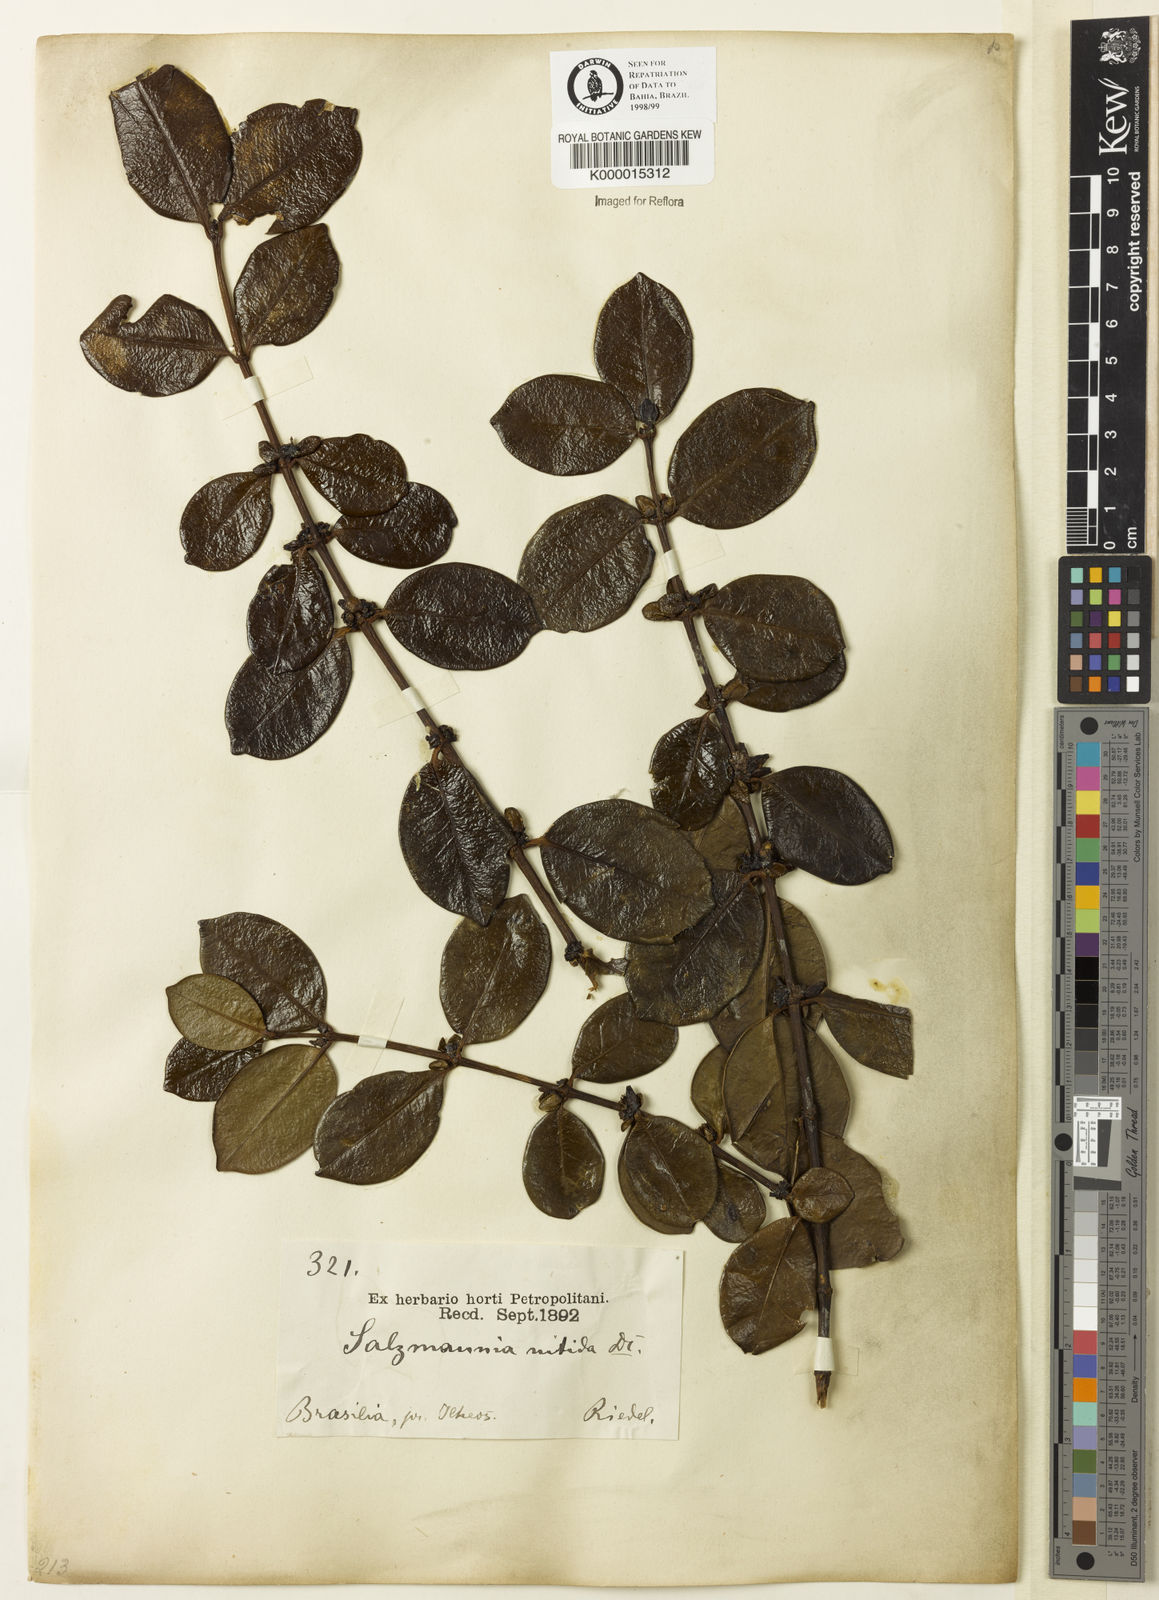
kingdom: Plantae
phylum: Tracheophyta
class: Magnoliopsida
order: Gentianales
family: Rubiaceae
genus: Salzmannia
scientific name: Salzmannia nitida
